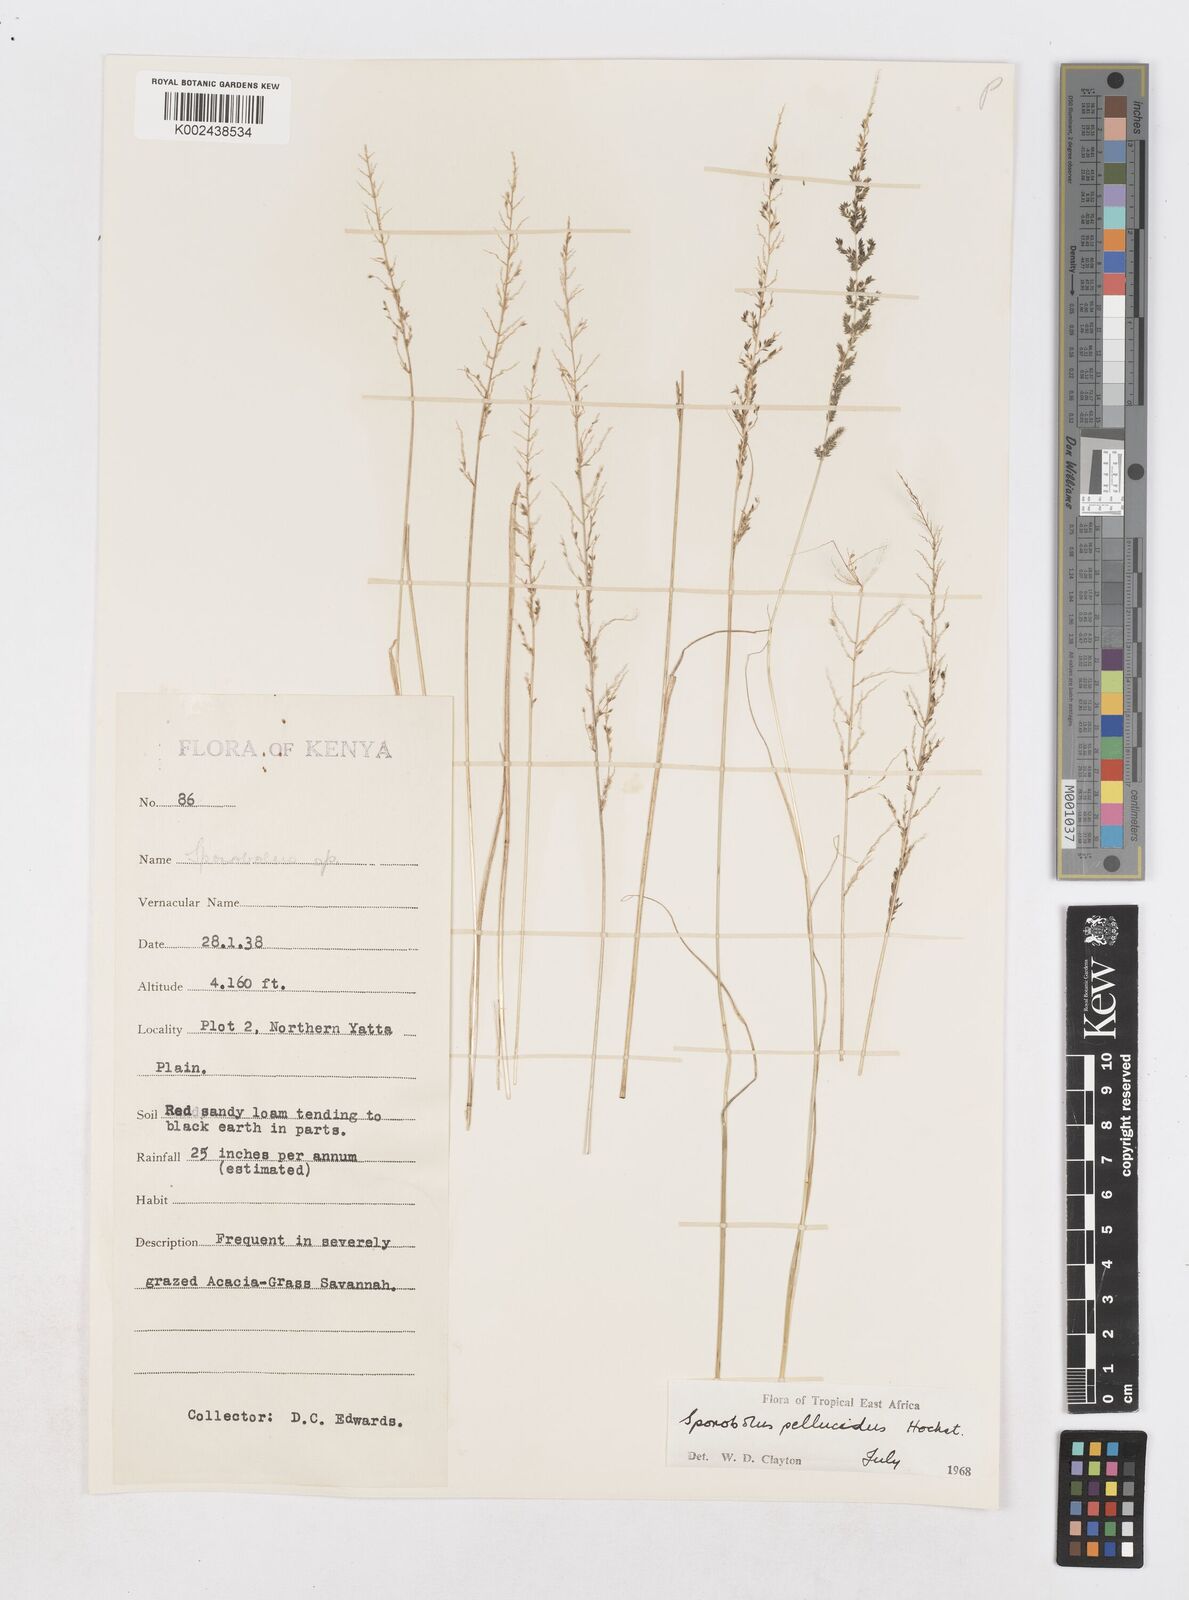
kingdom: Plantae
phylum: Tracheophyta
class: Liliopsida
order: Poales
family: Poaceae
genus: Sporobolus
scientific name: Sporobolus pellucidus
